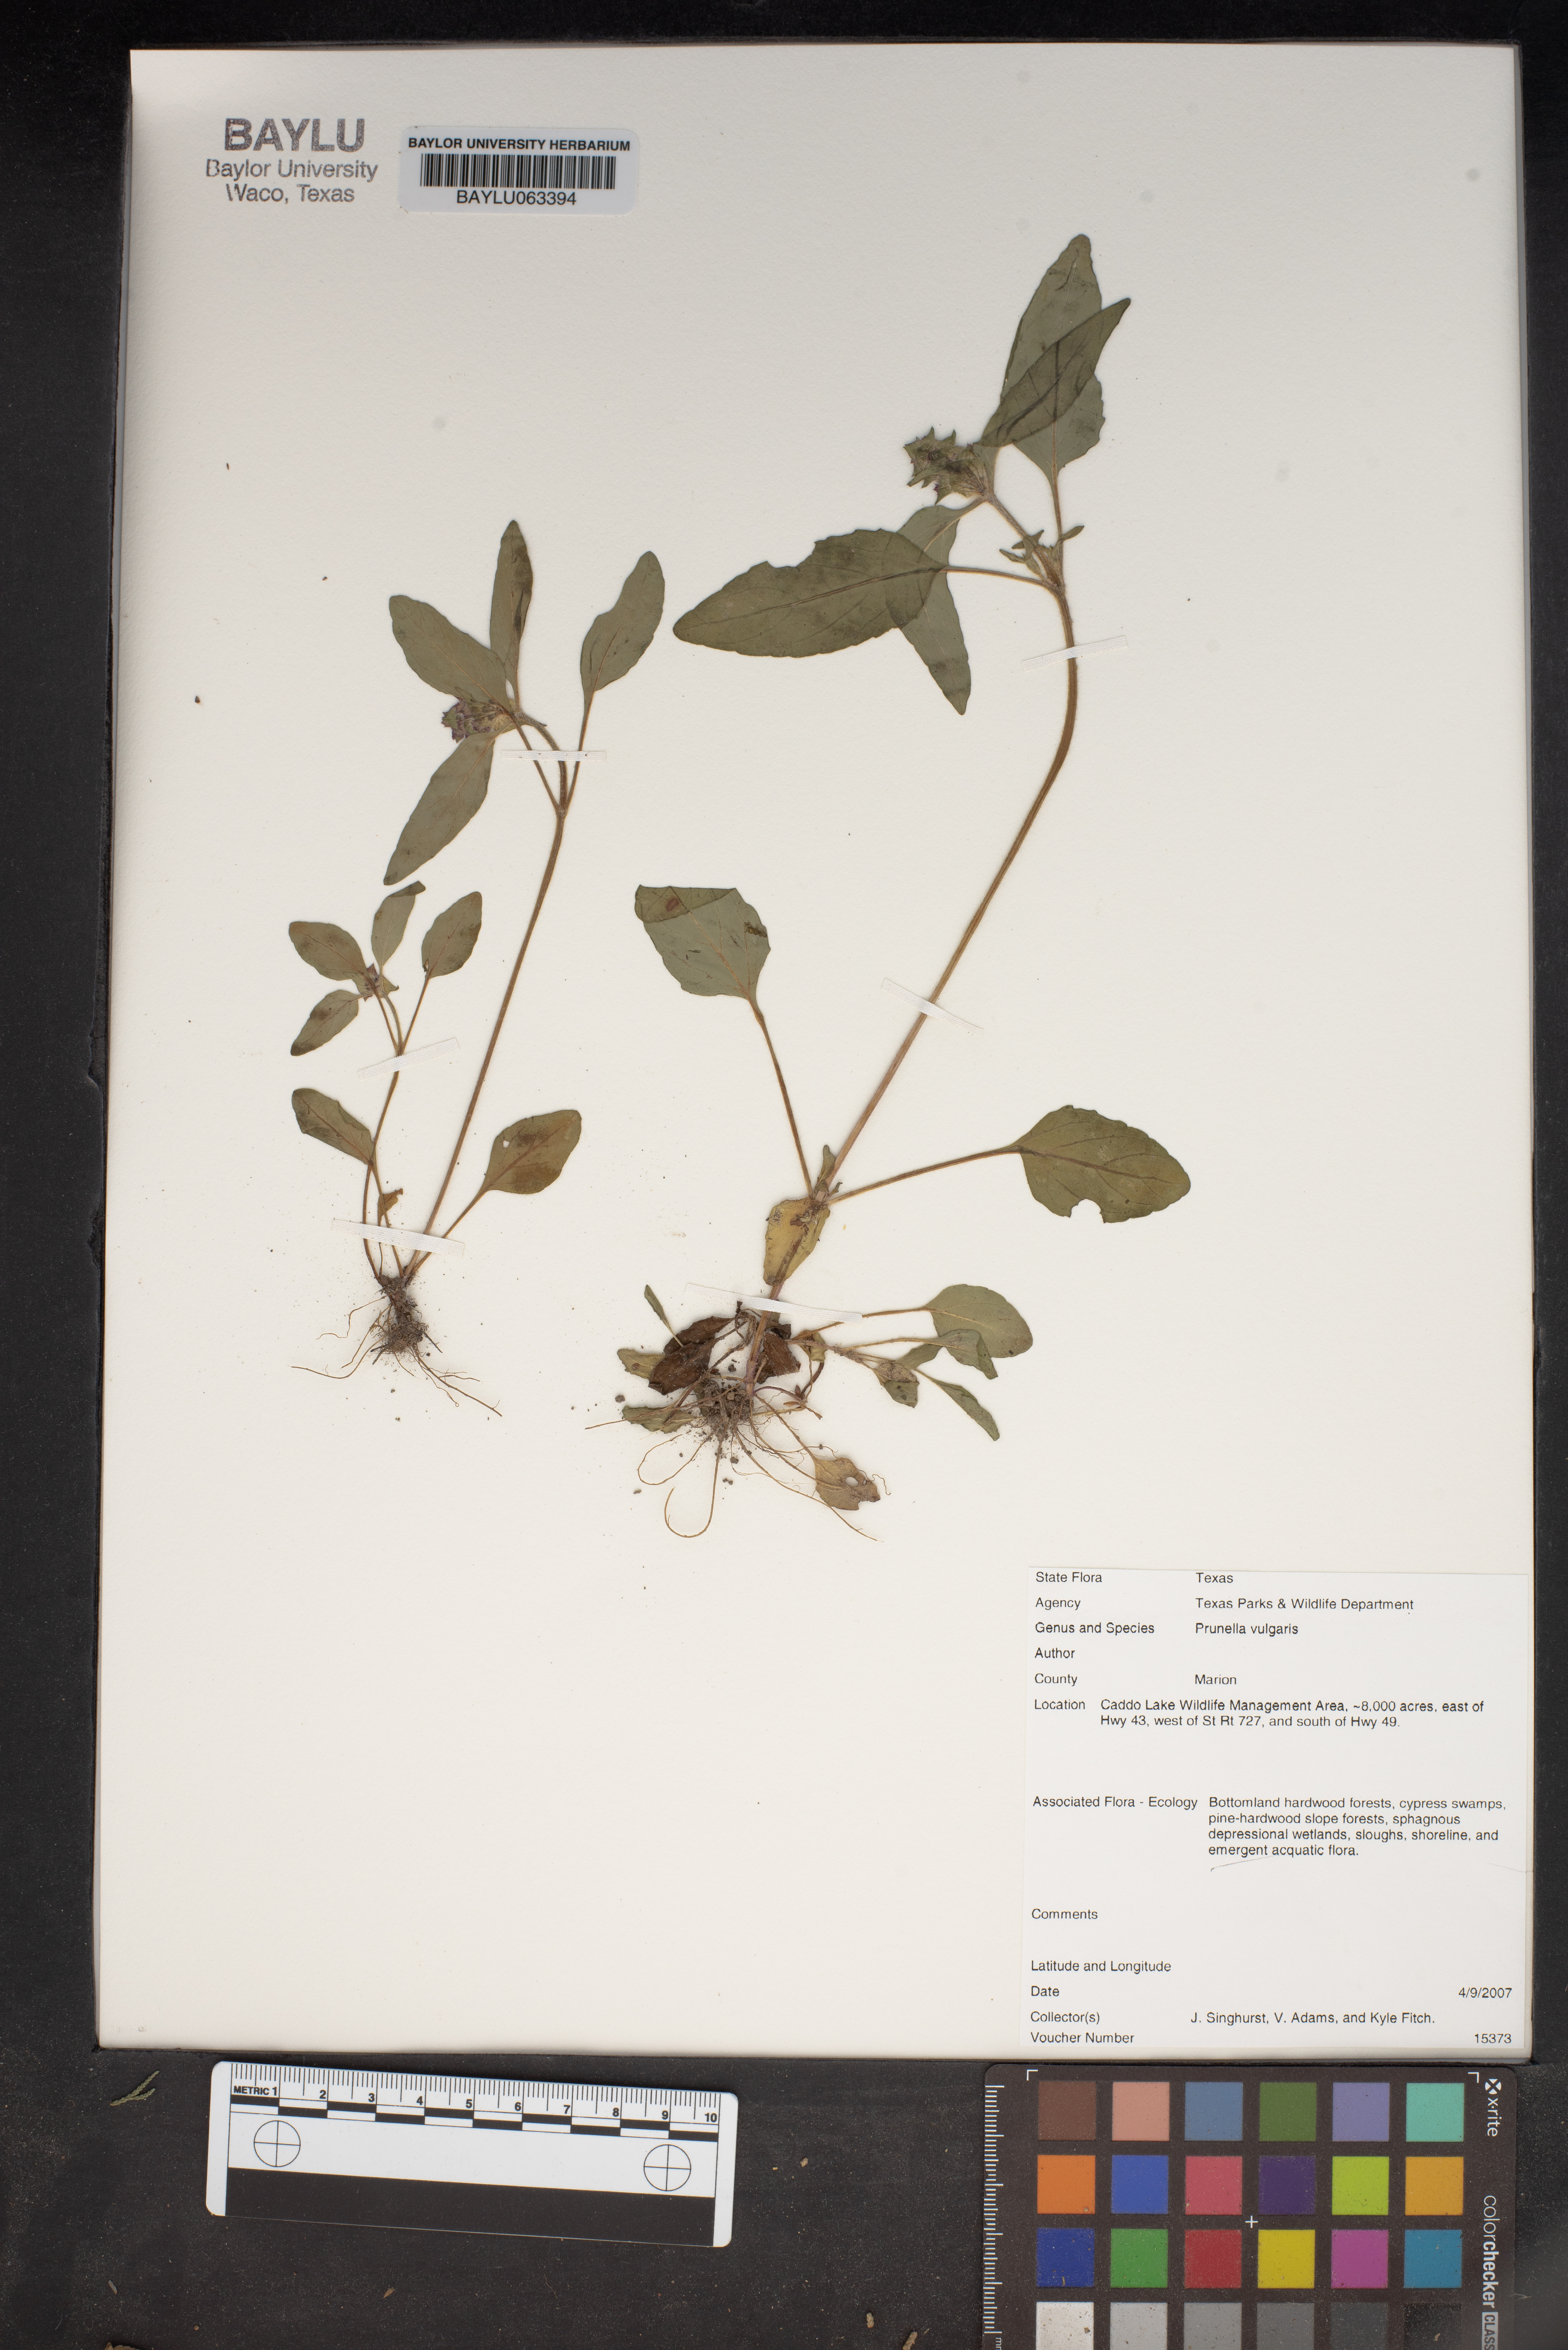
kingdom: Plantae
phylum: Tracheophyta
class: Magnoliopsida
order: Lamiales
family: Lamiaceae
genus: Prunella
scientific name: Prunella vulgaris
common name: Heal-all
